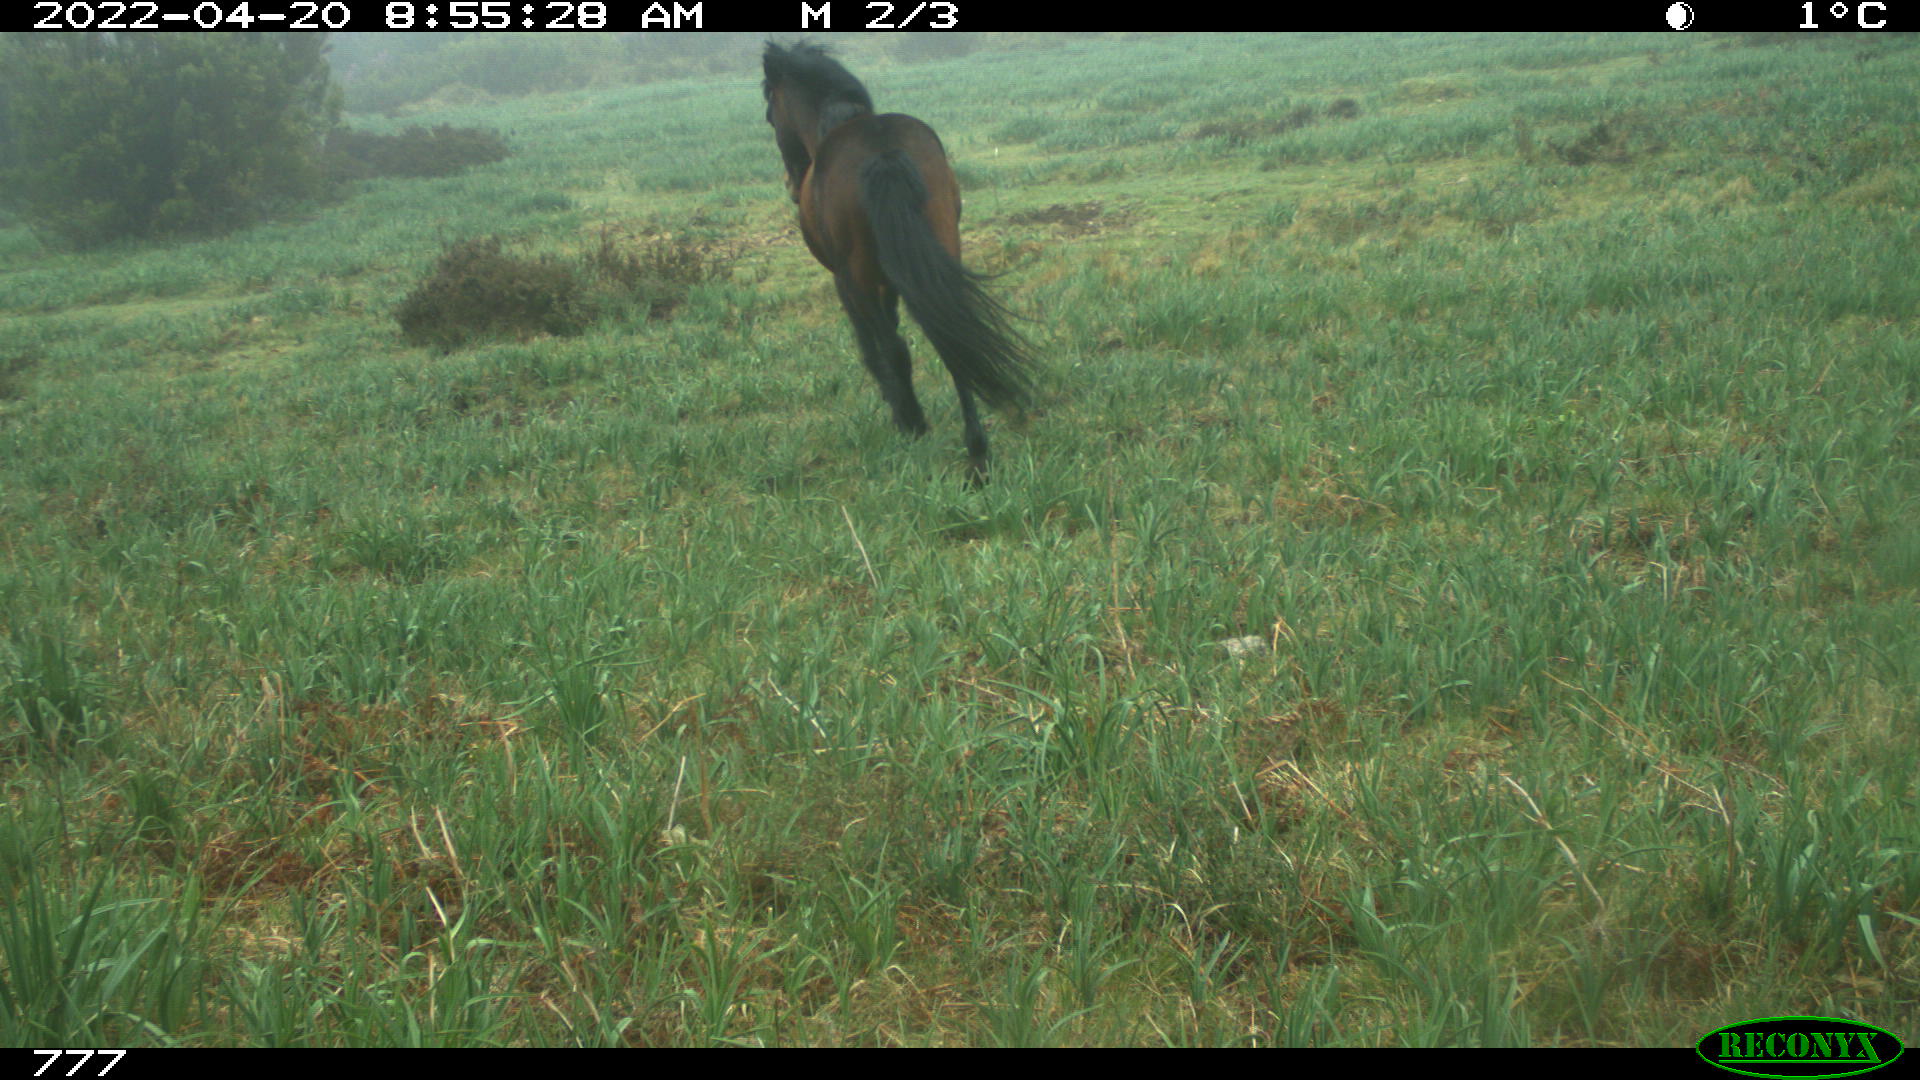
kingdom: Animalia
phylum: Chordata
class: Mammalia
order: Perissodactyla
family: Equidae
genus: Equus
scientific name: Equus caballus
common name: Horse
